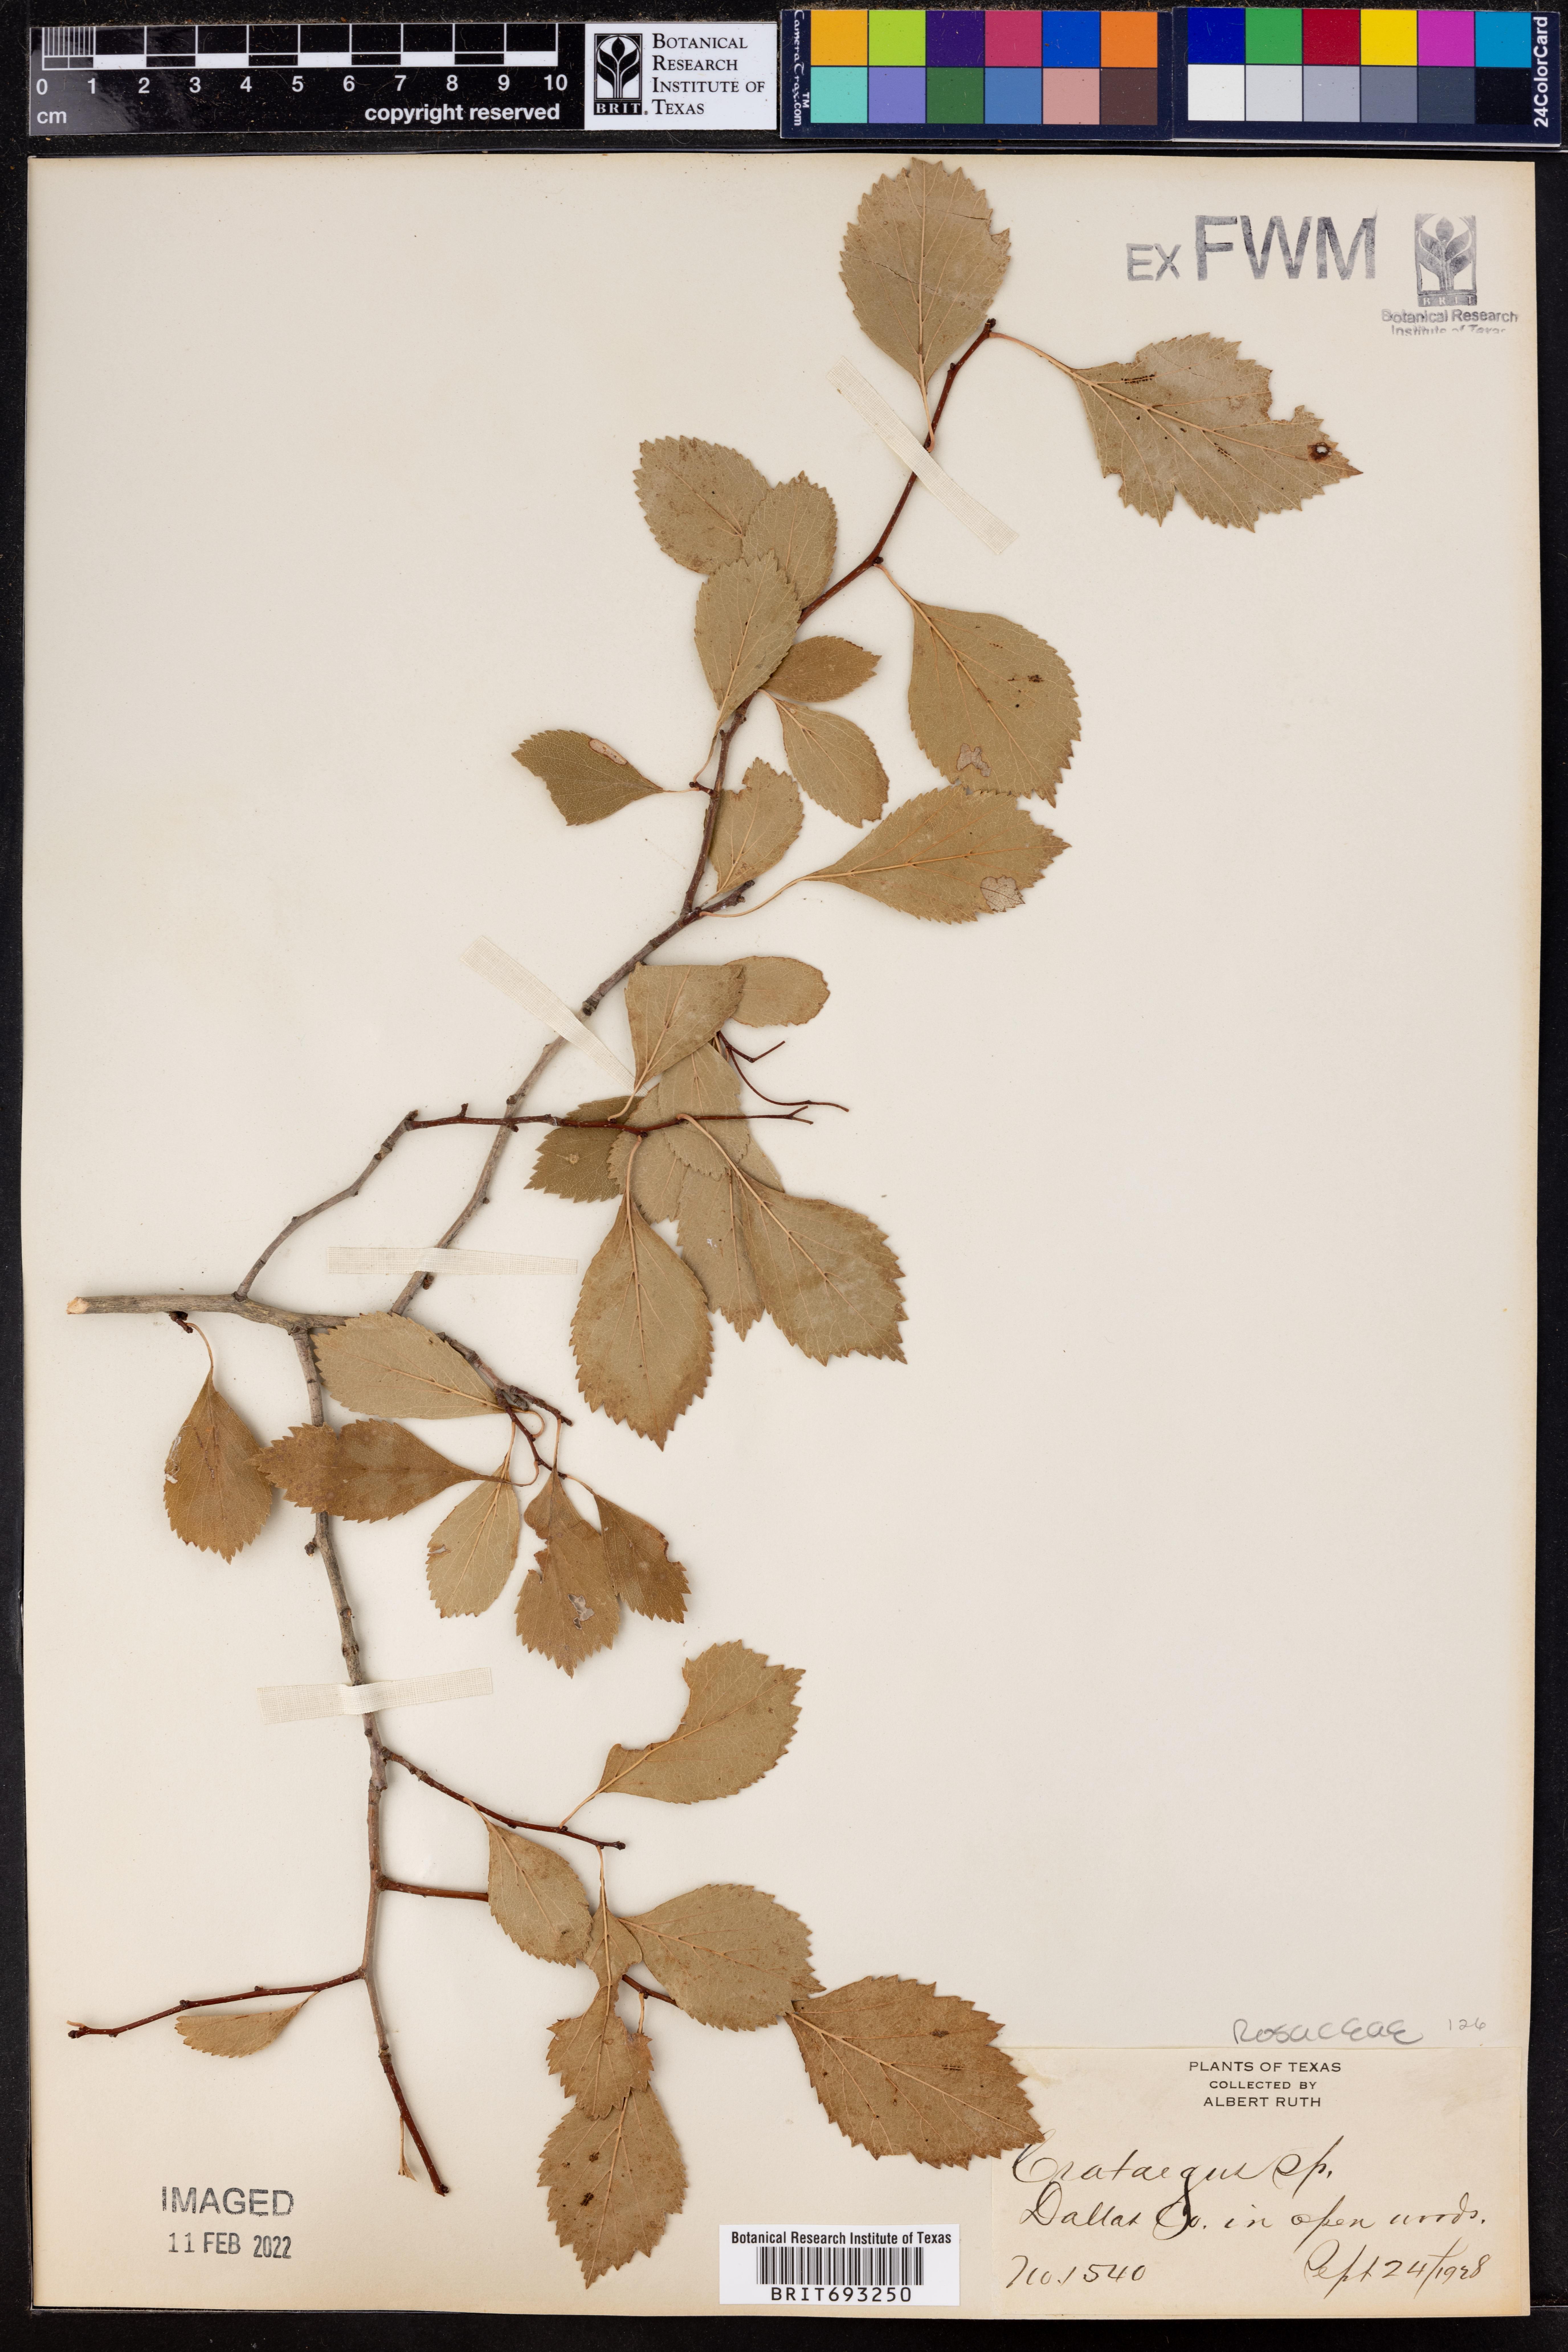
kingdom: Plantae
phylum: Tracheophyta
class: Magnoliopsida
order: Rosales
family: Rosaceae
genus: Crataegus
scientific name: Crataegus
